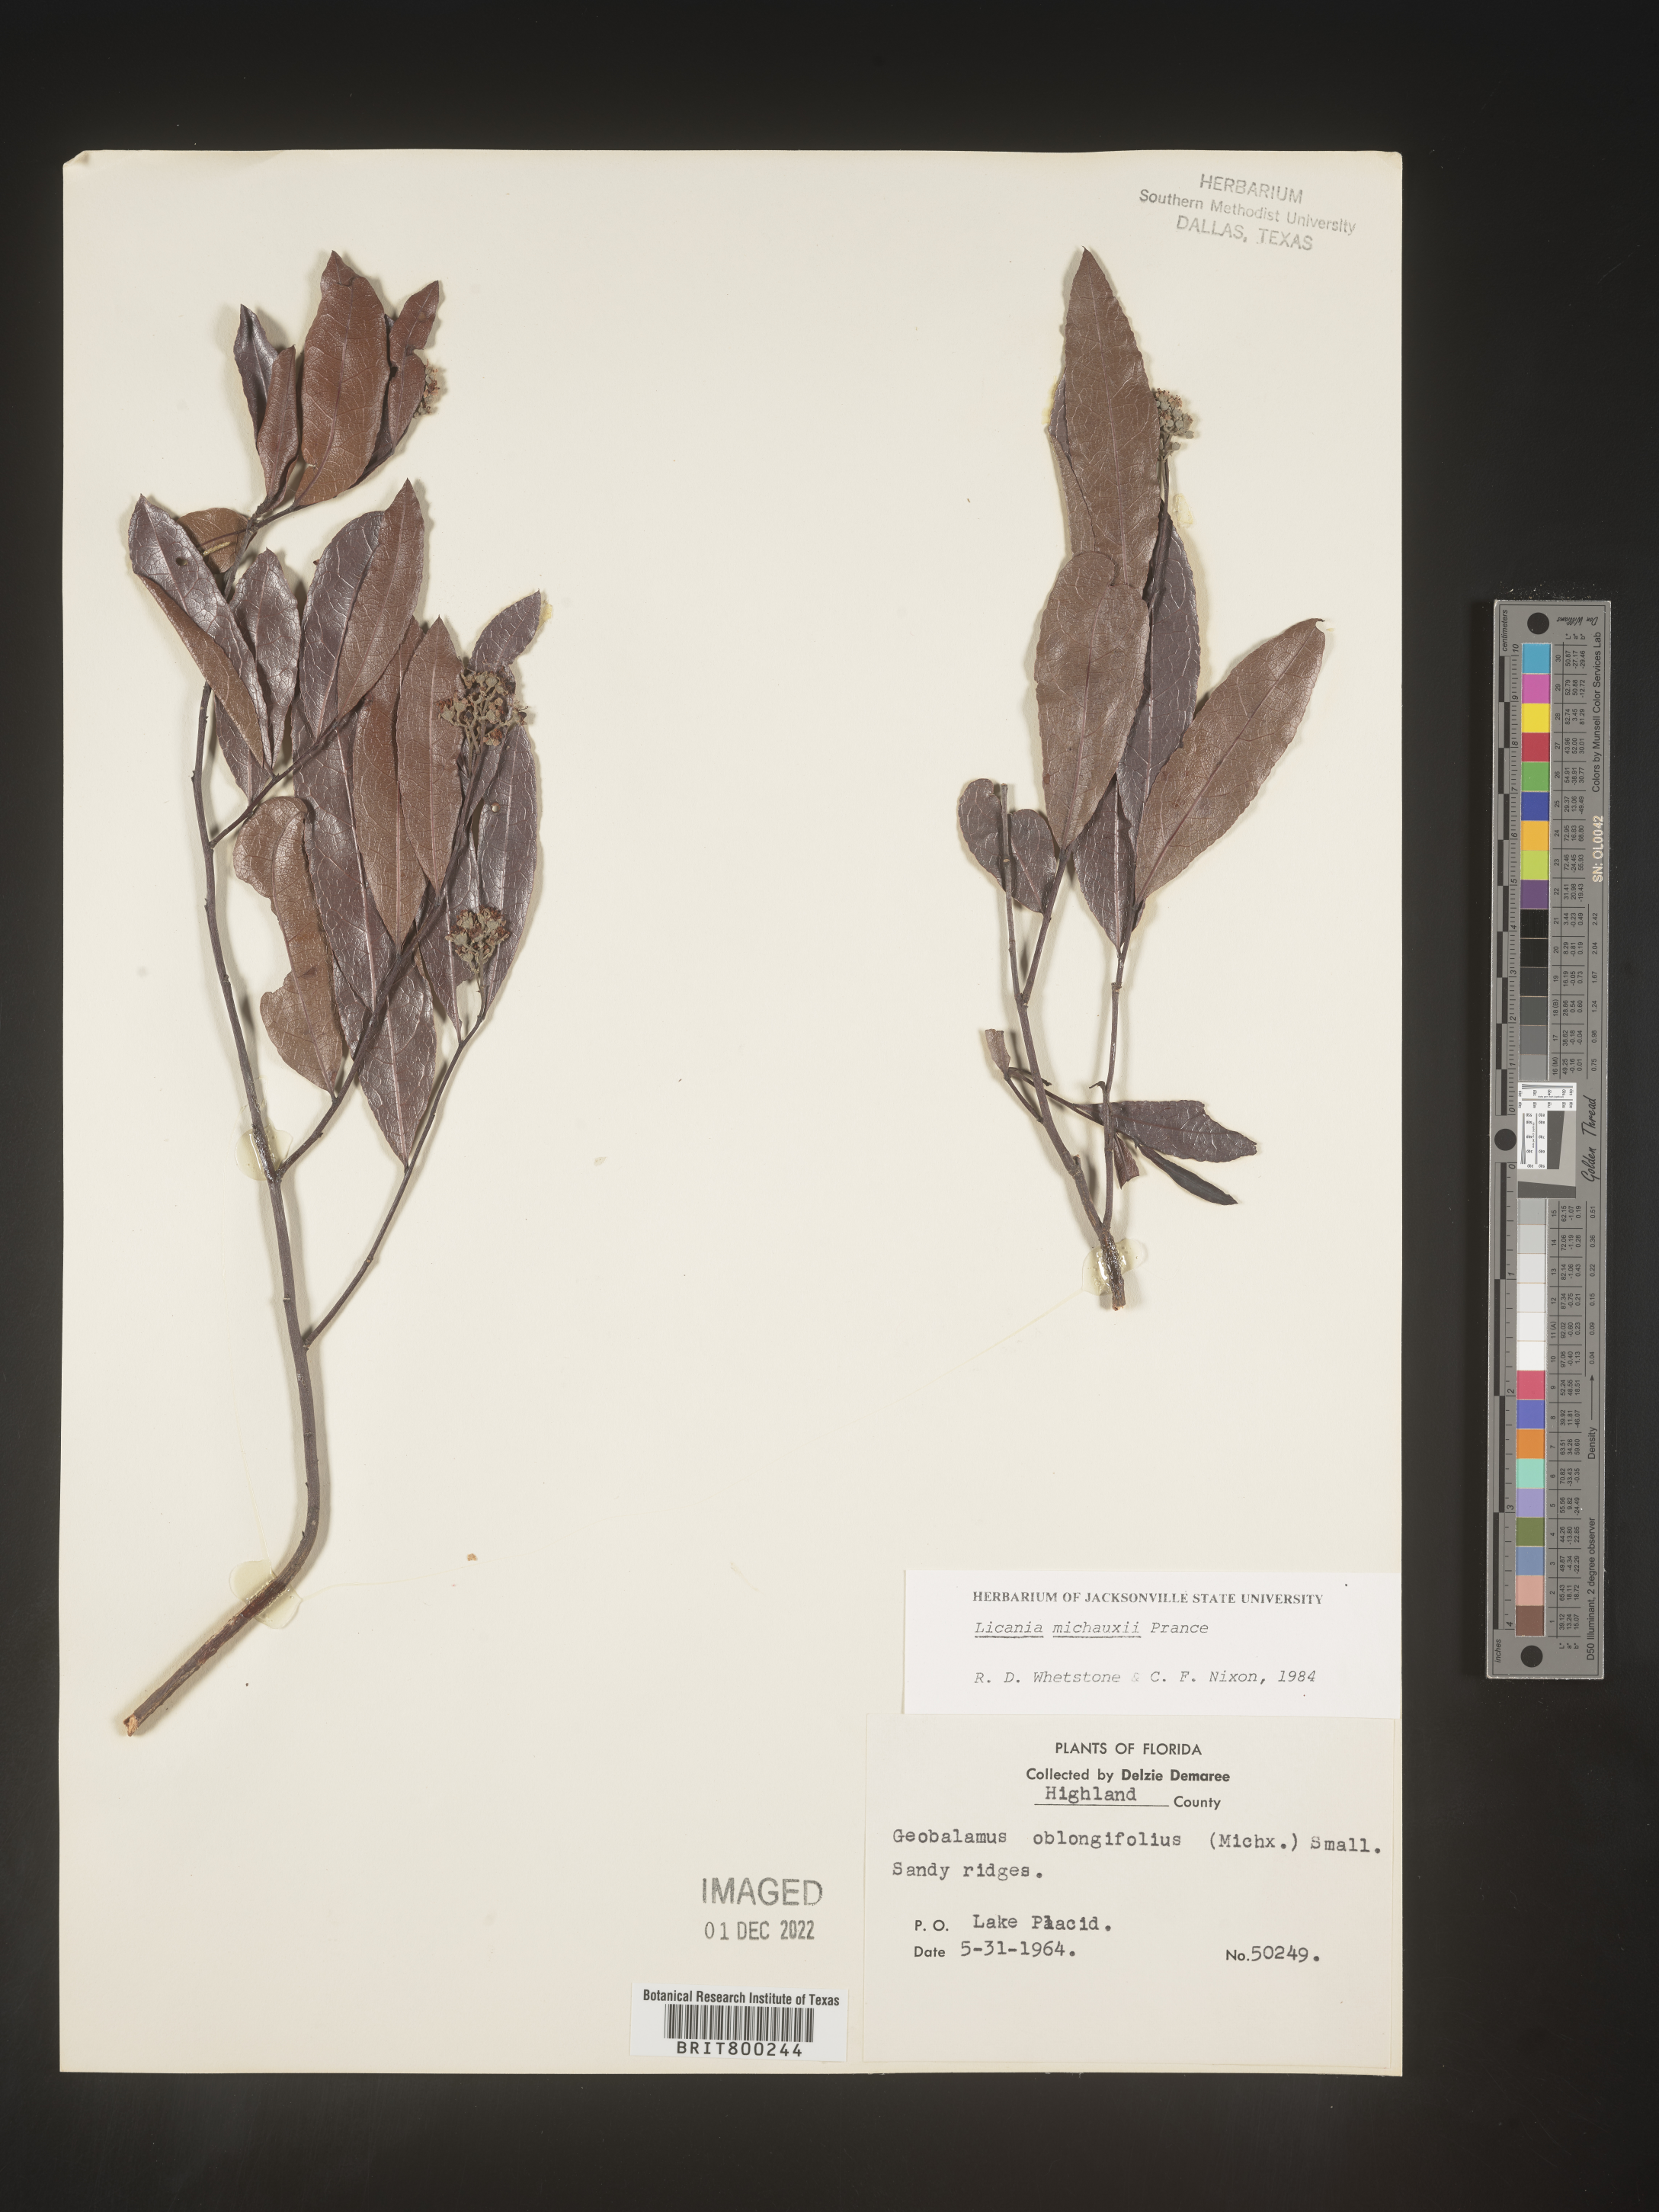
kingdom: Plantae
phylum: Tracheophyta
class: Magnoliopsida
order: Malpighiales
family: Chrysobalanaceae
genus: Geobalanus
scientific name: Geobalanus oblongifolius
